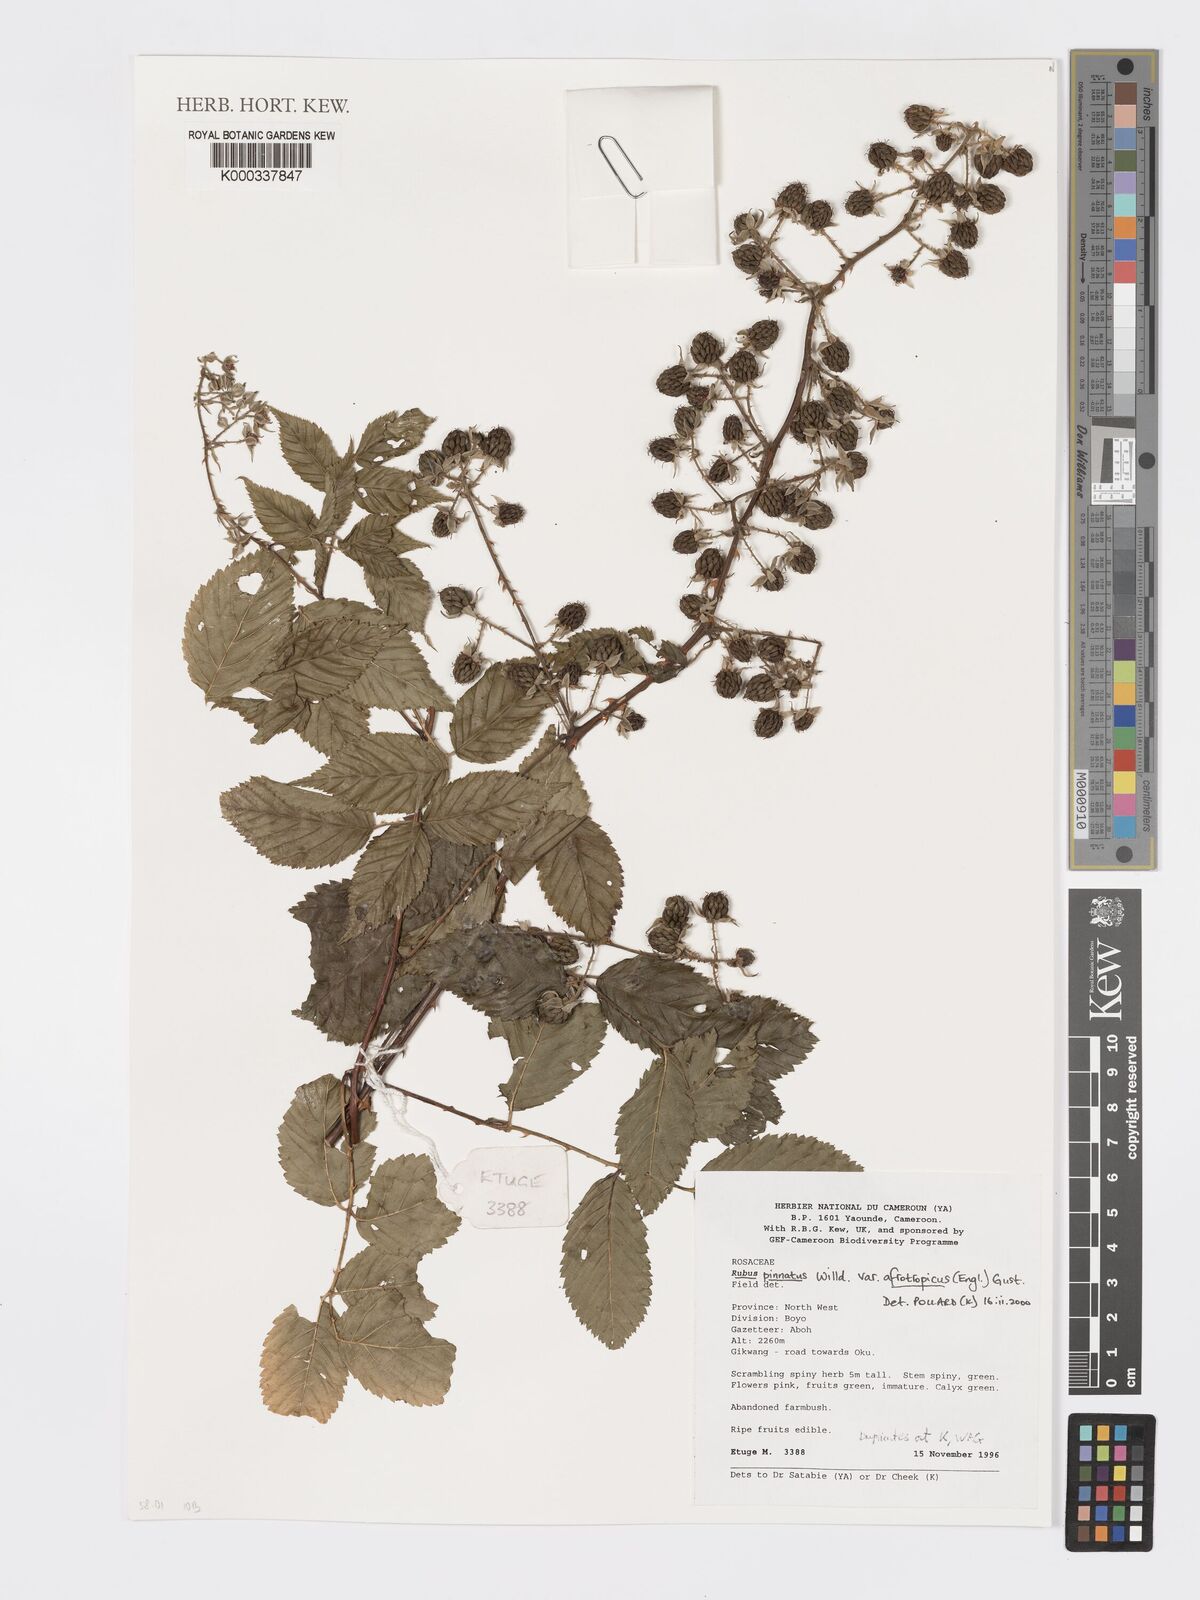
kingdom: Plantae
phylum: Tracheophyta
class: Magnoliopsida
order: Rosales
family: Rosaceae
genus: Rubus
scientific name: Rubus pinnatus
